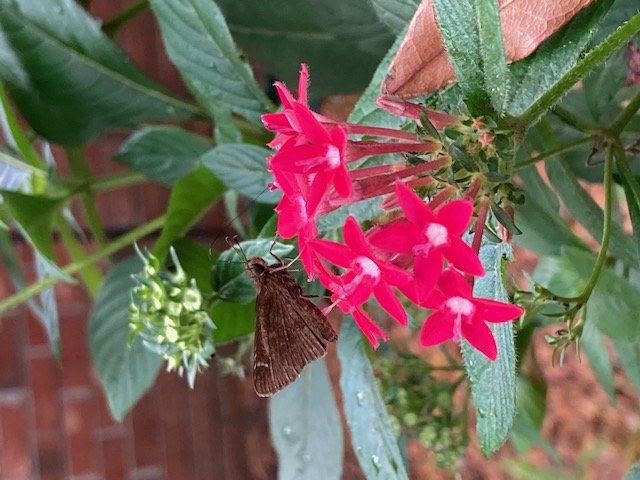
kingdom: Animalia
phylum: Arthropoda
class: Insecta
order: Lepidoptera
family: Hesperiidae
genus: Lerema
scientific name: Lerema accius
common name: Clouded Skipper
